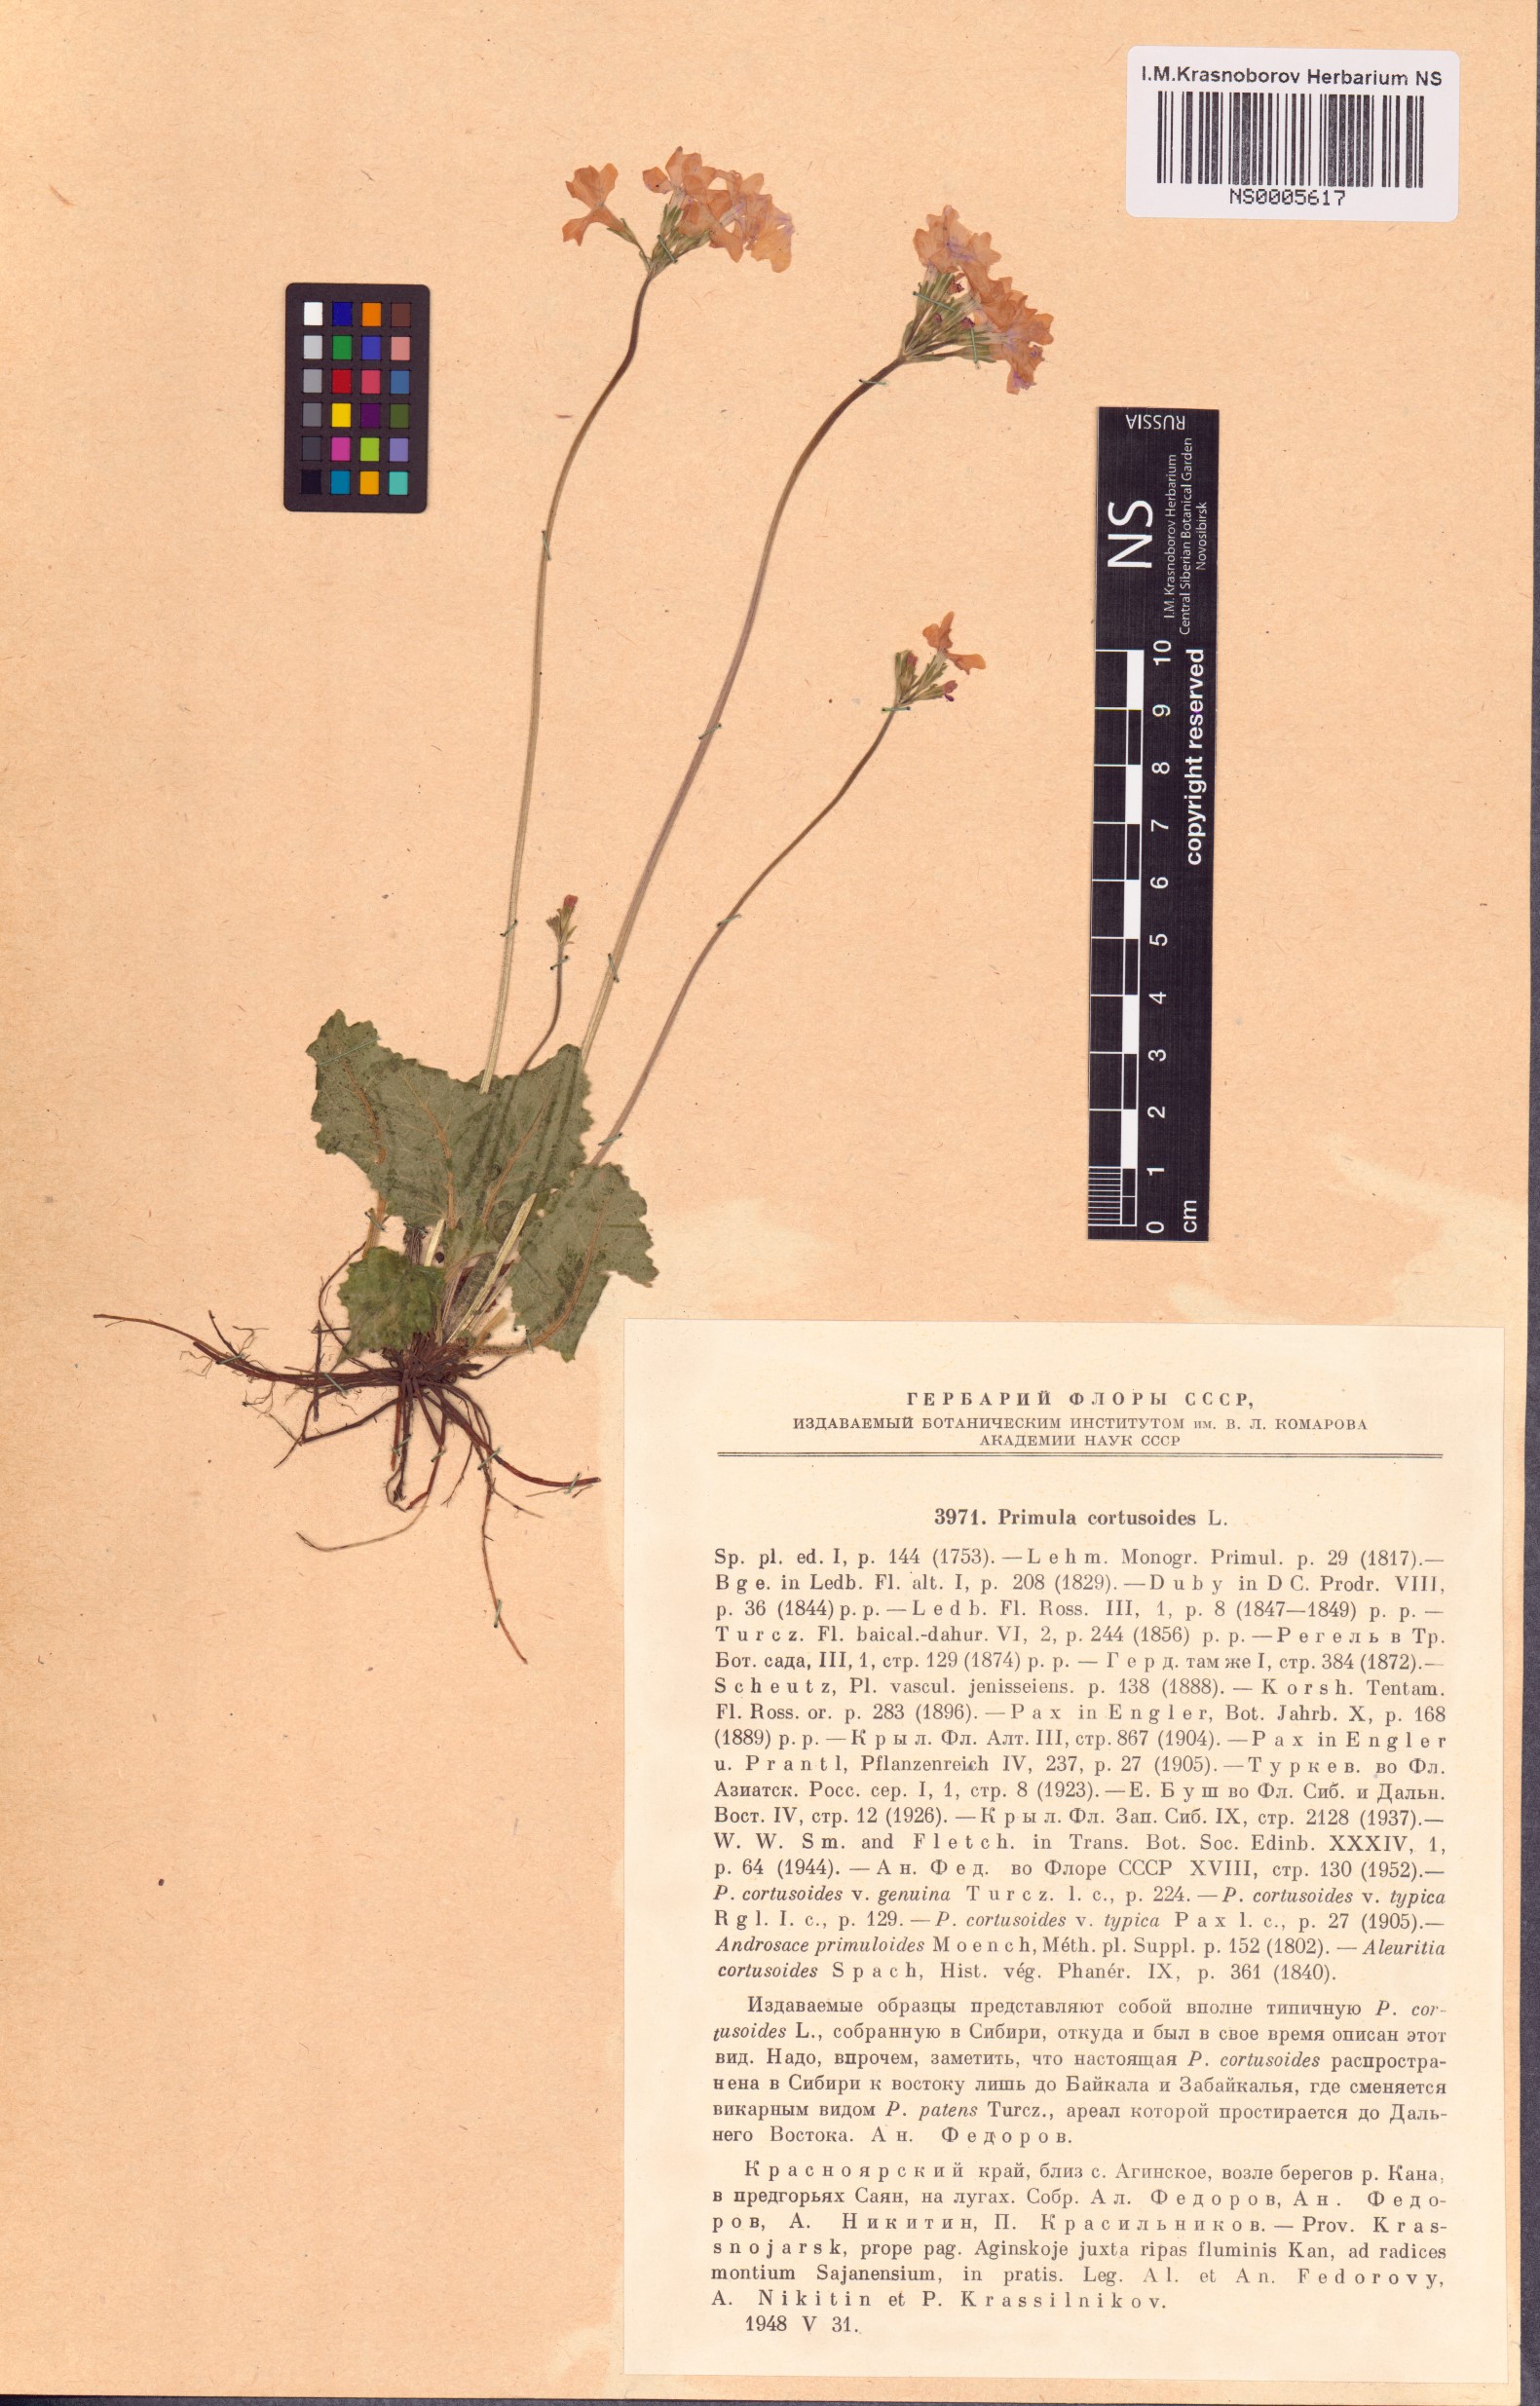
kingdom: Plantae
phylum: Tracheophyta
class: Magnoliopsida
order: Ericales
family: Primulaceae
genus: Primula
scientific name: Primula cortusoides
